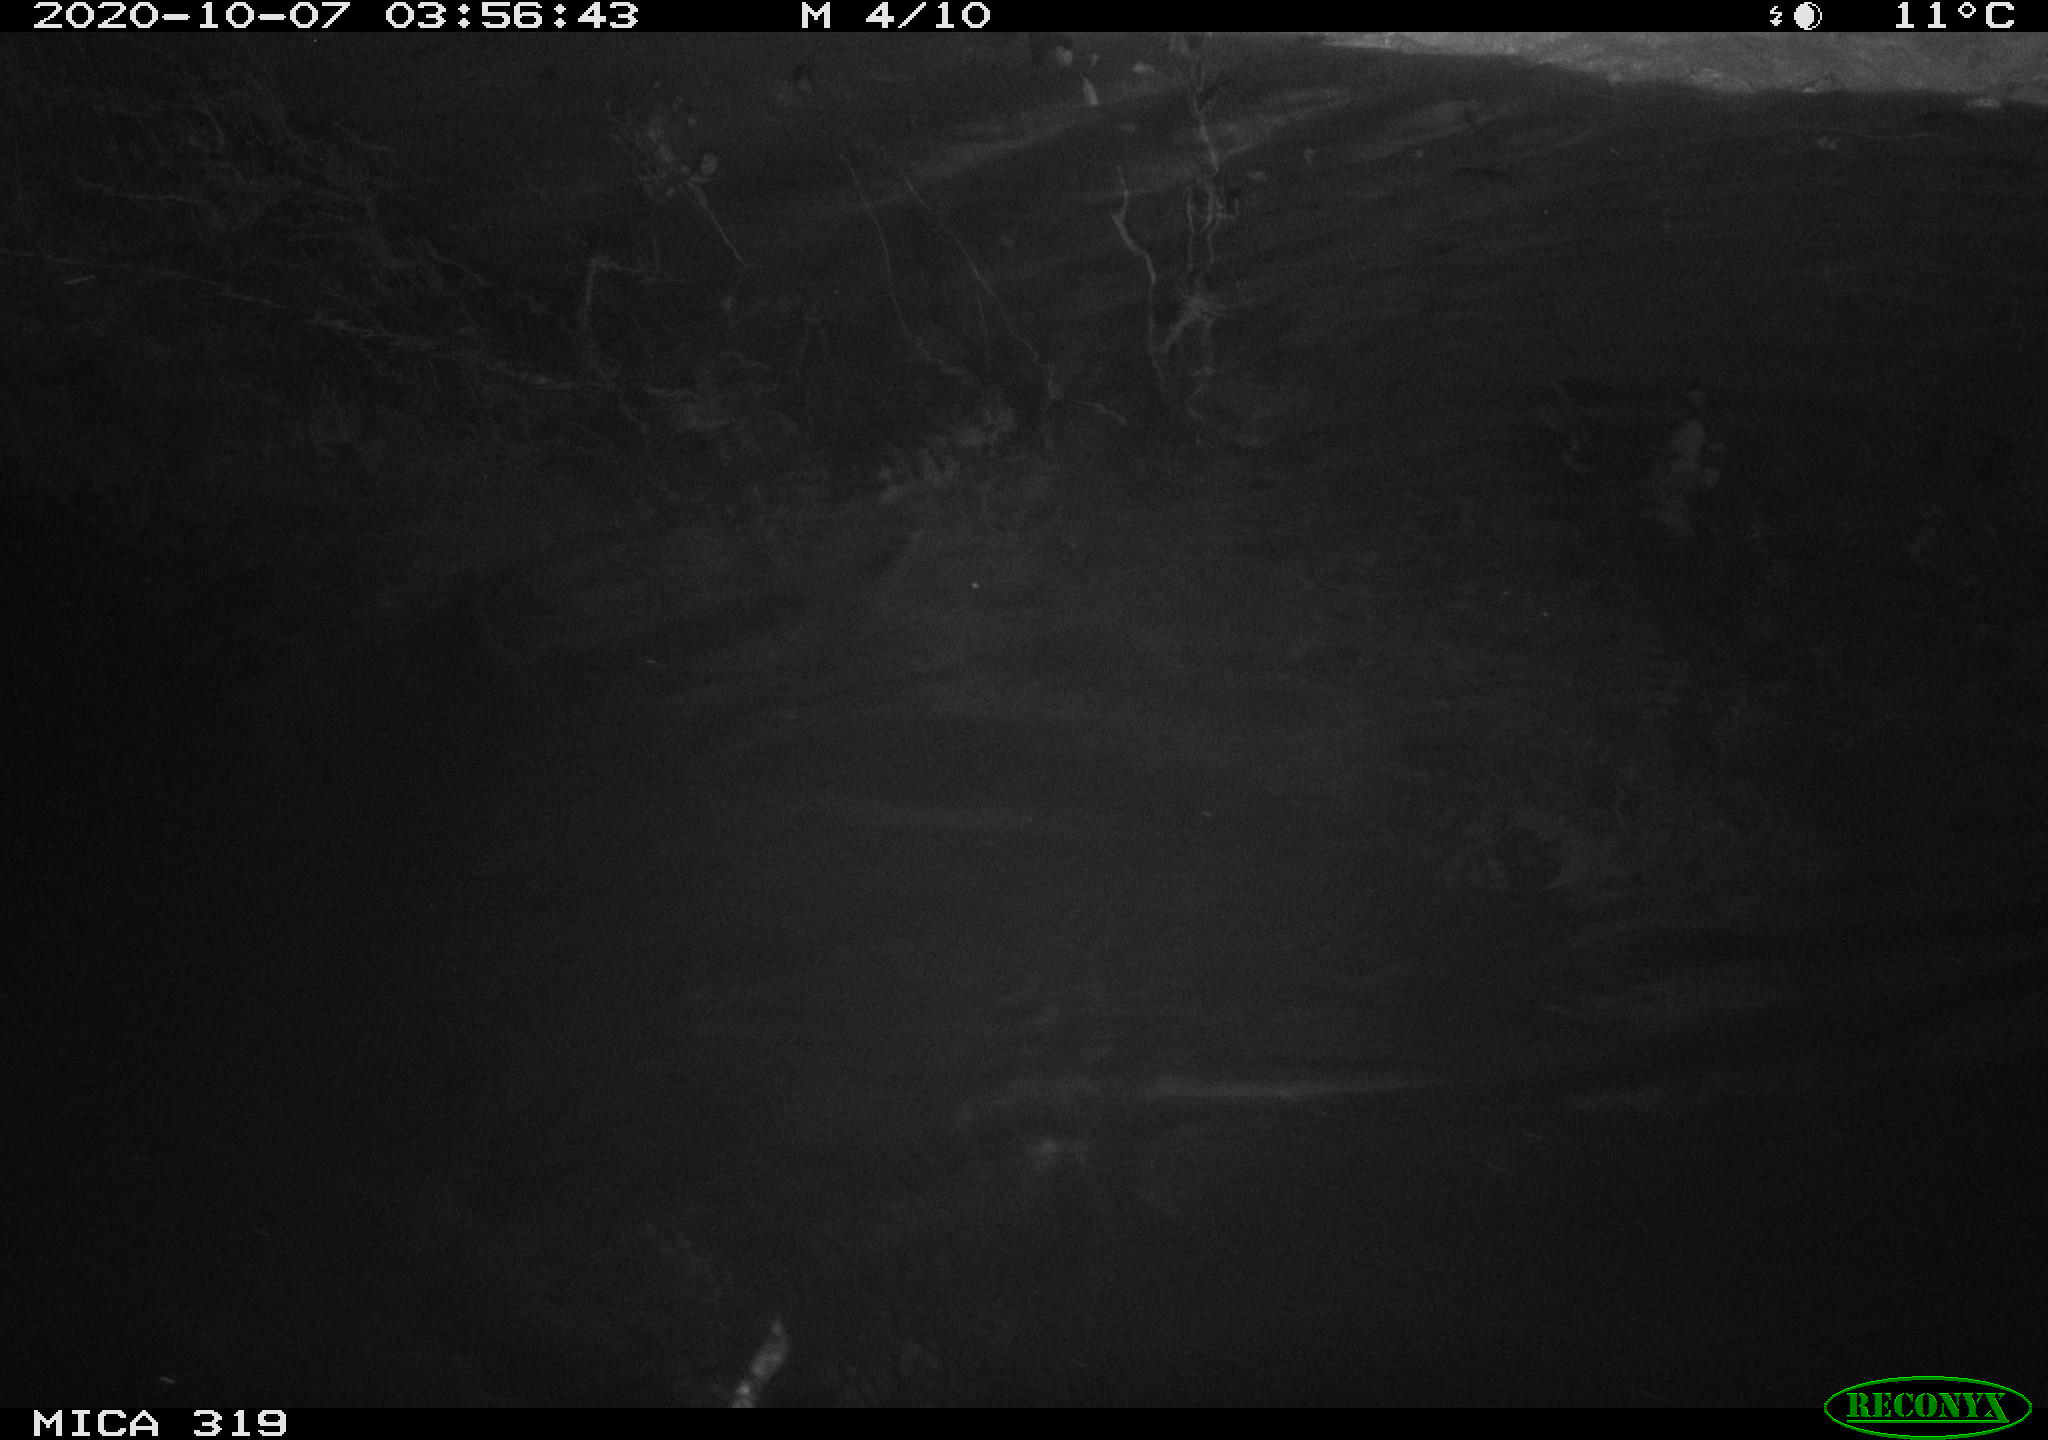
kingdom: Animalia
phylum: Chordata
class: Mammalia
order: Rodentia
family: Muridae
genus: Rattus
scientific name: Rattus norvegicus
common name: Brown rat
